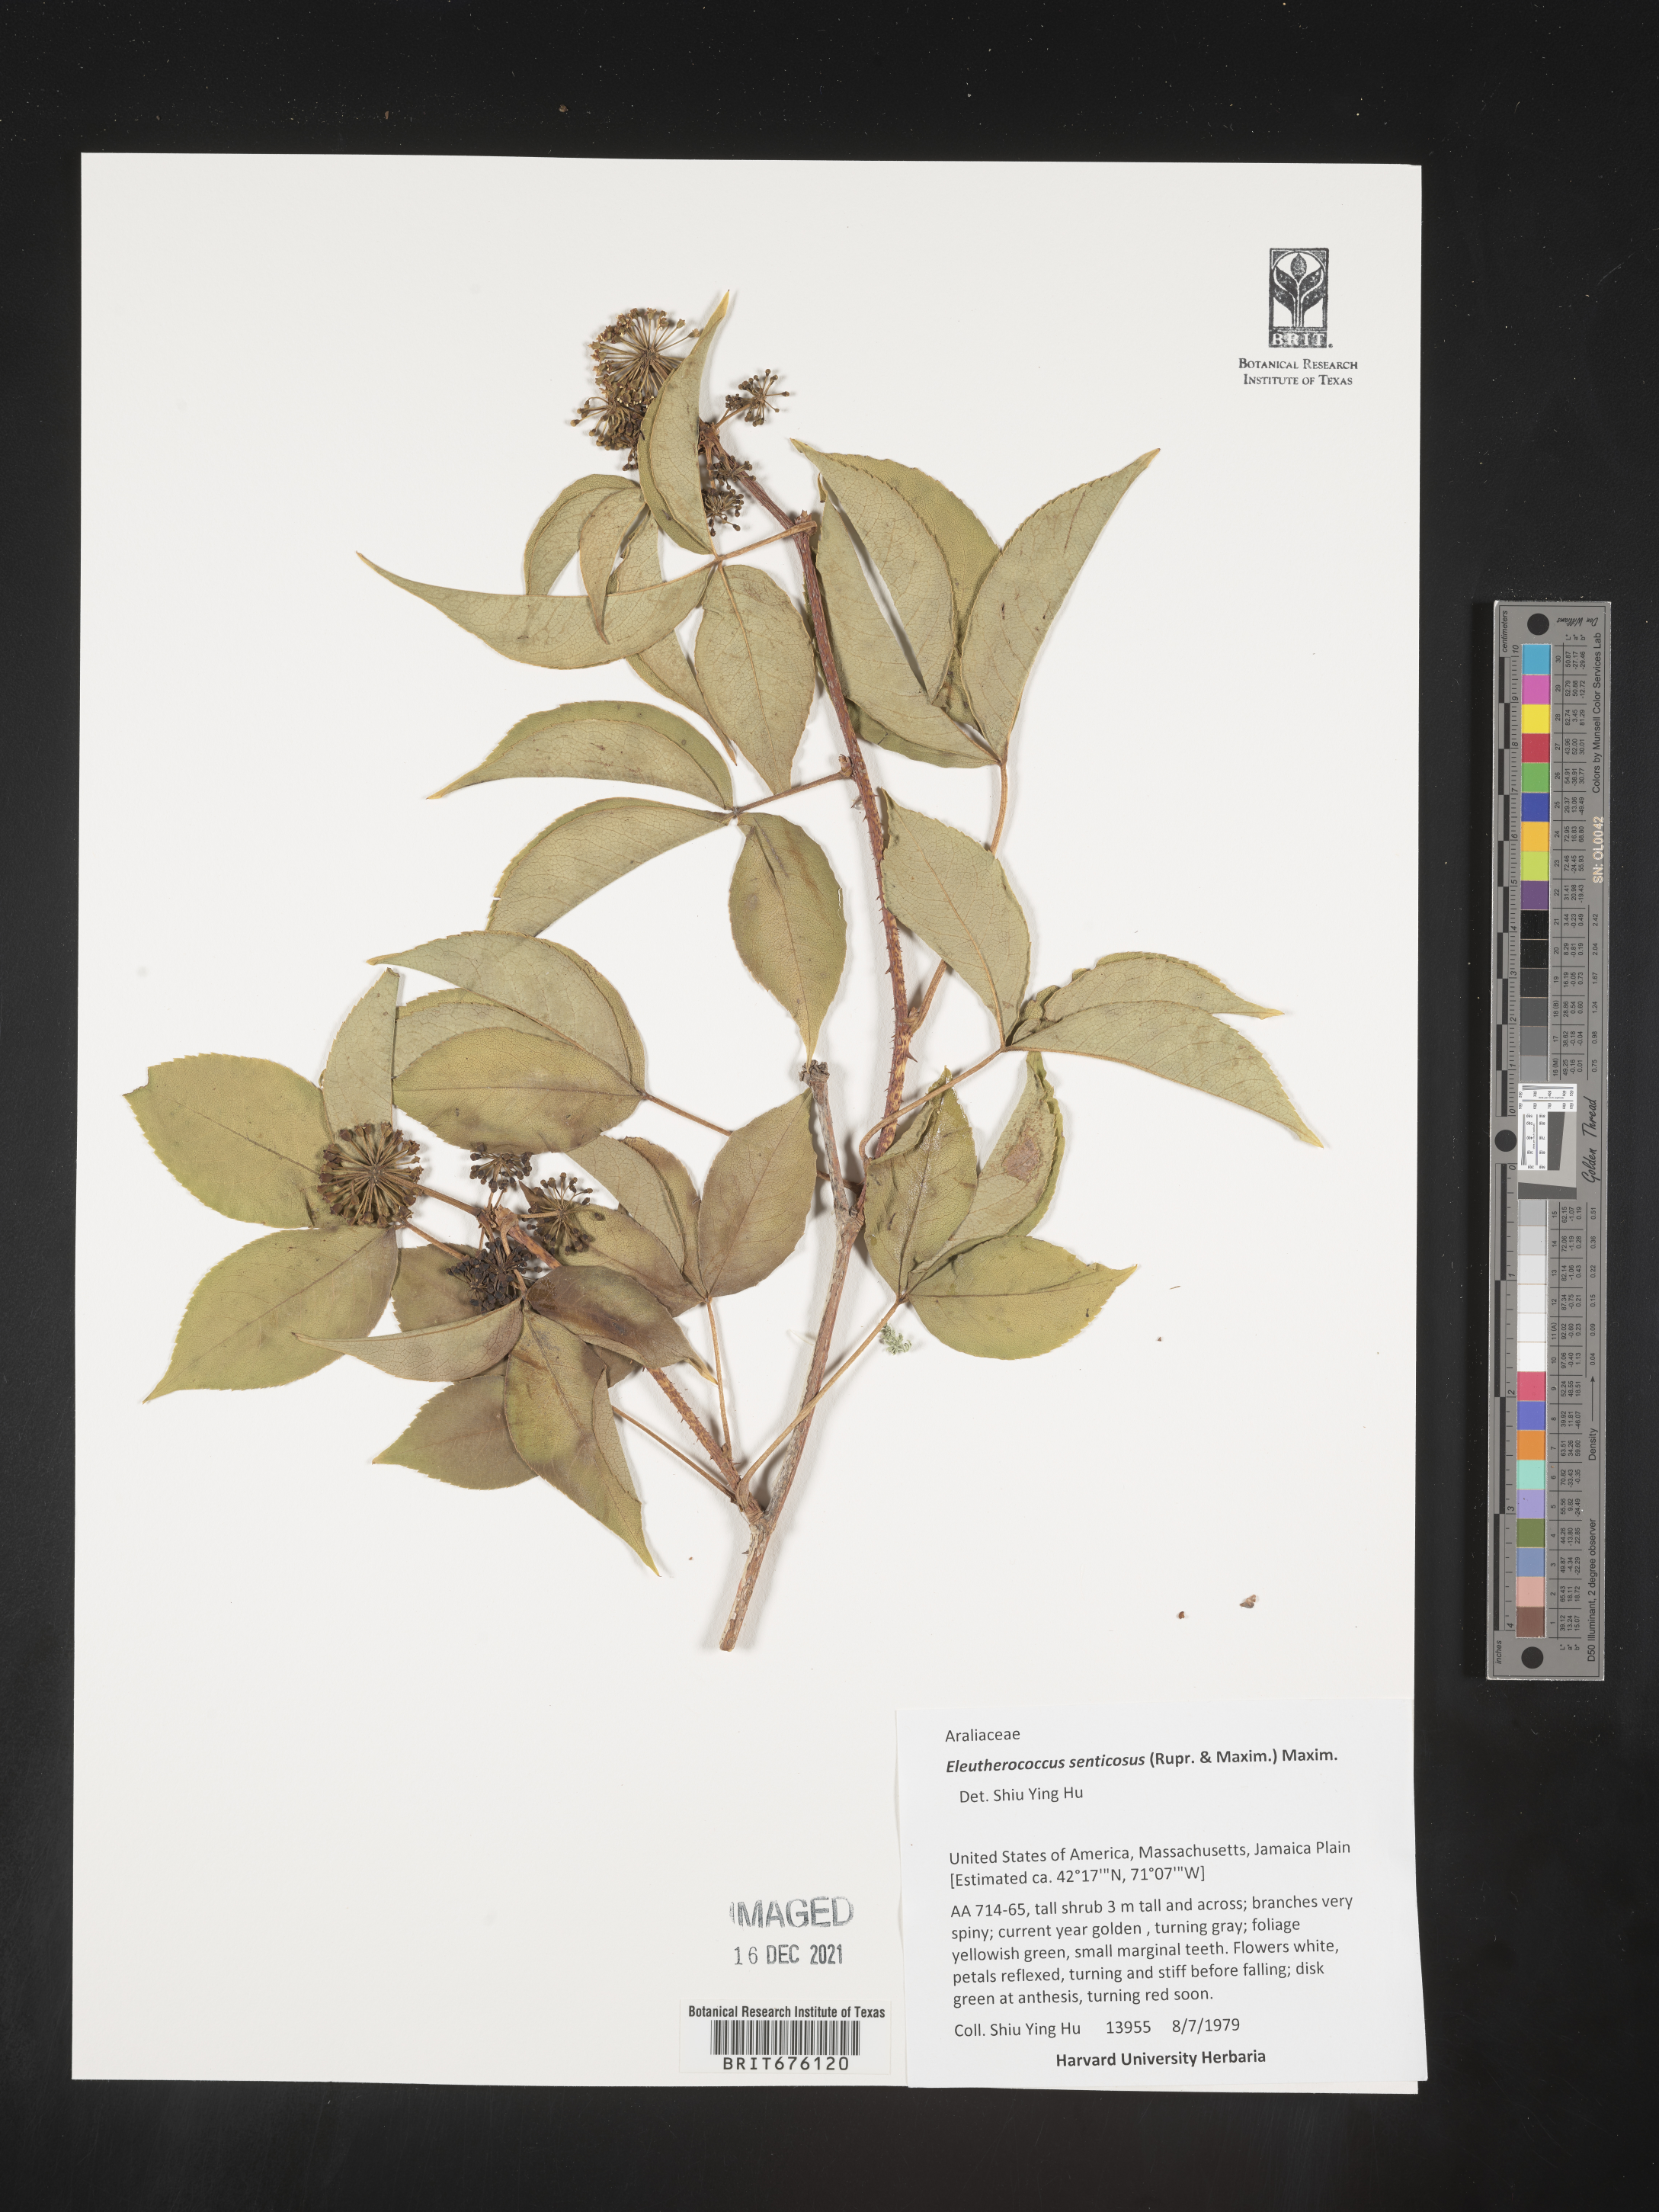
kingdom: Plantae
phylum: Tracheophyta
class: Magnoliopsida
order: Apiales
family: Araliaceae
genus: Eleutherococcus
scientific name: Eleutherococcus
